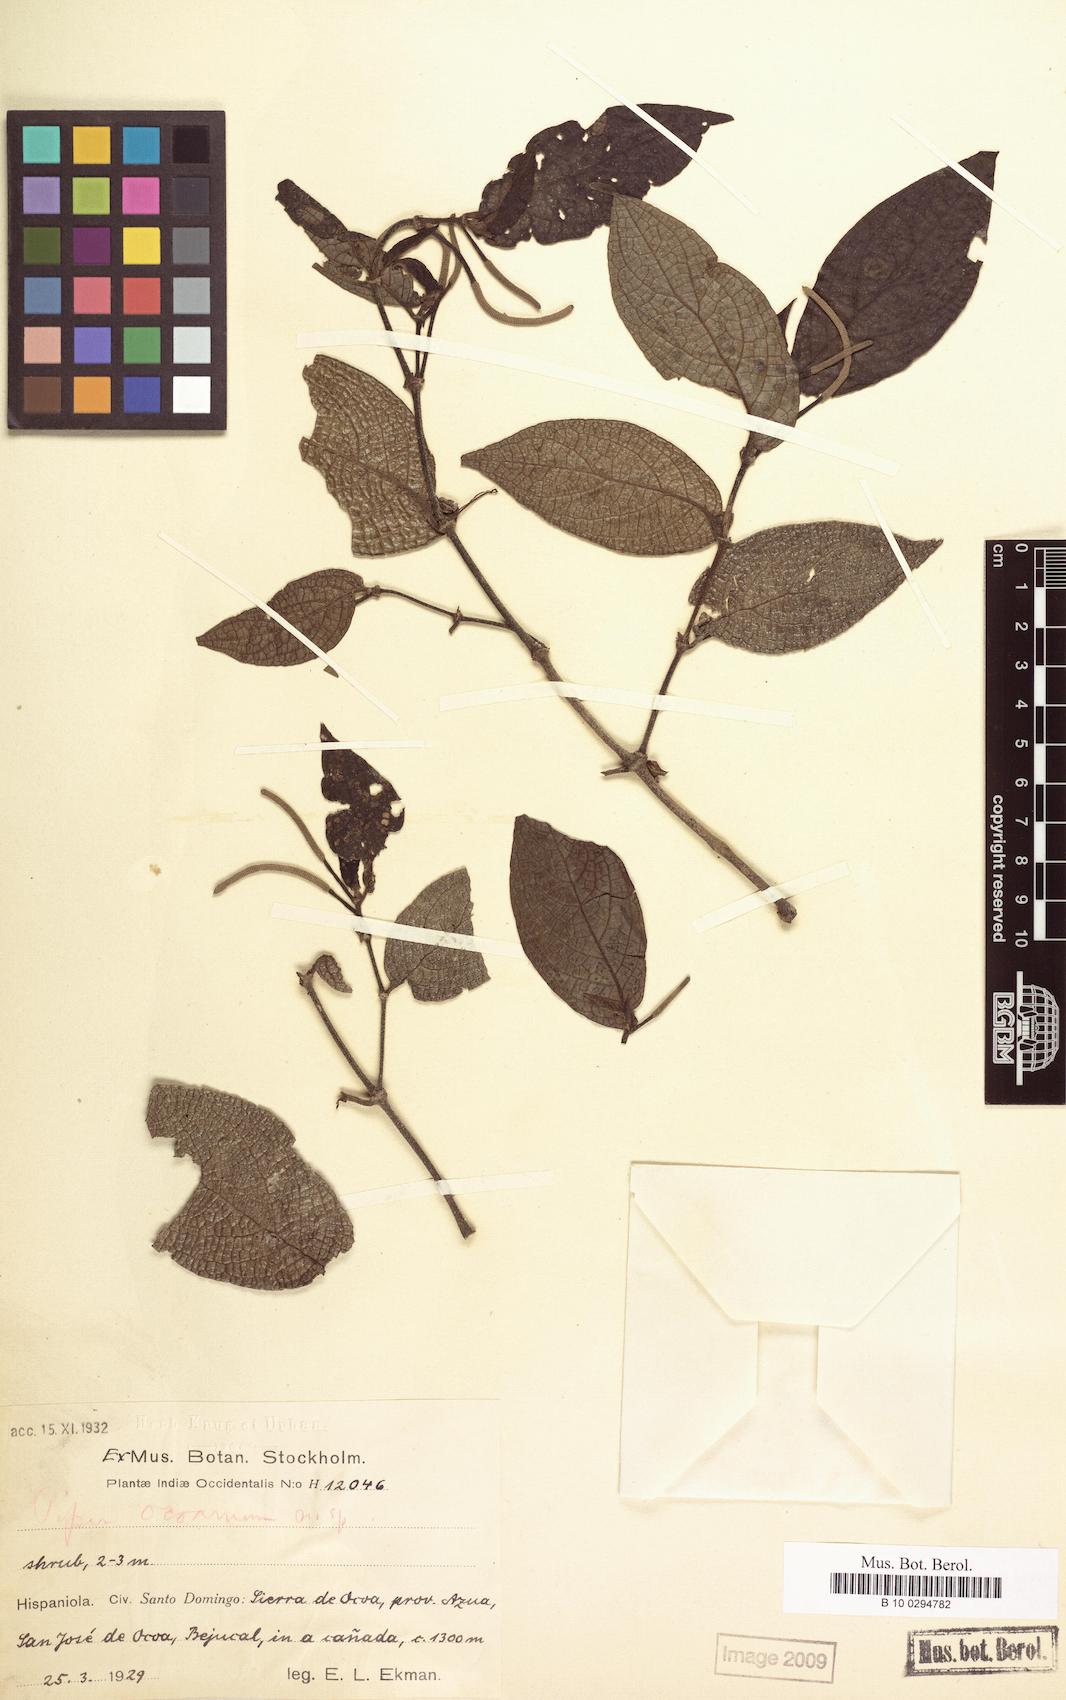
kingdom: Plantae
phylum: Tracheophyta
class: Magnoliopsida
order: Piperales
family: Piperaceae
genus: Piper
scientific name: Piper confusum
